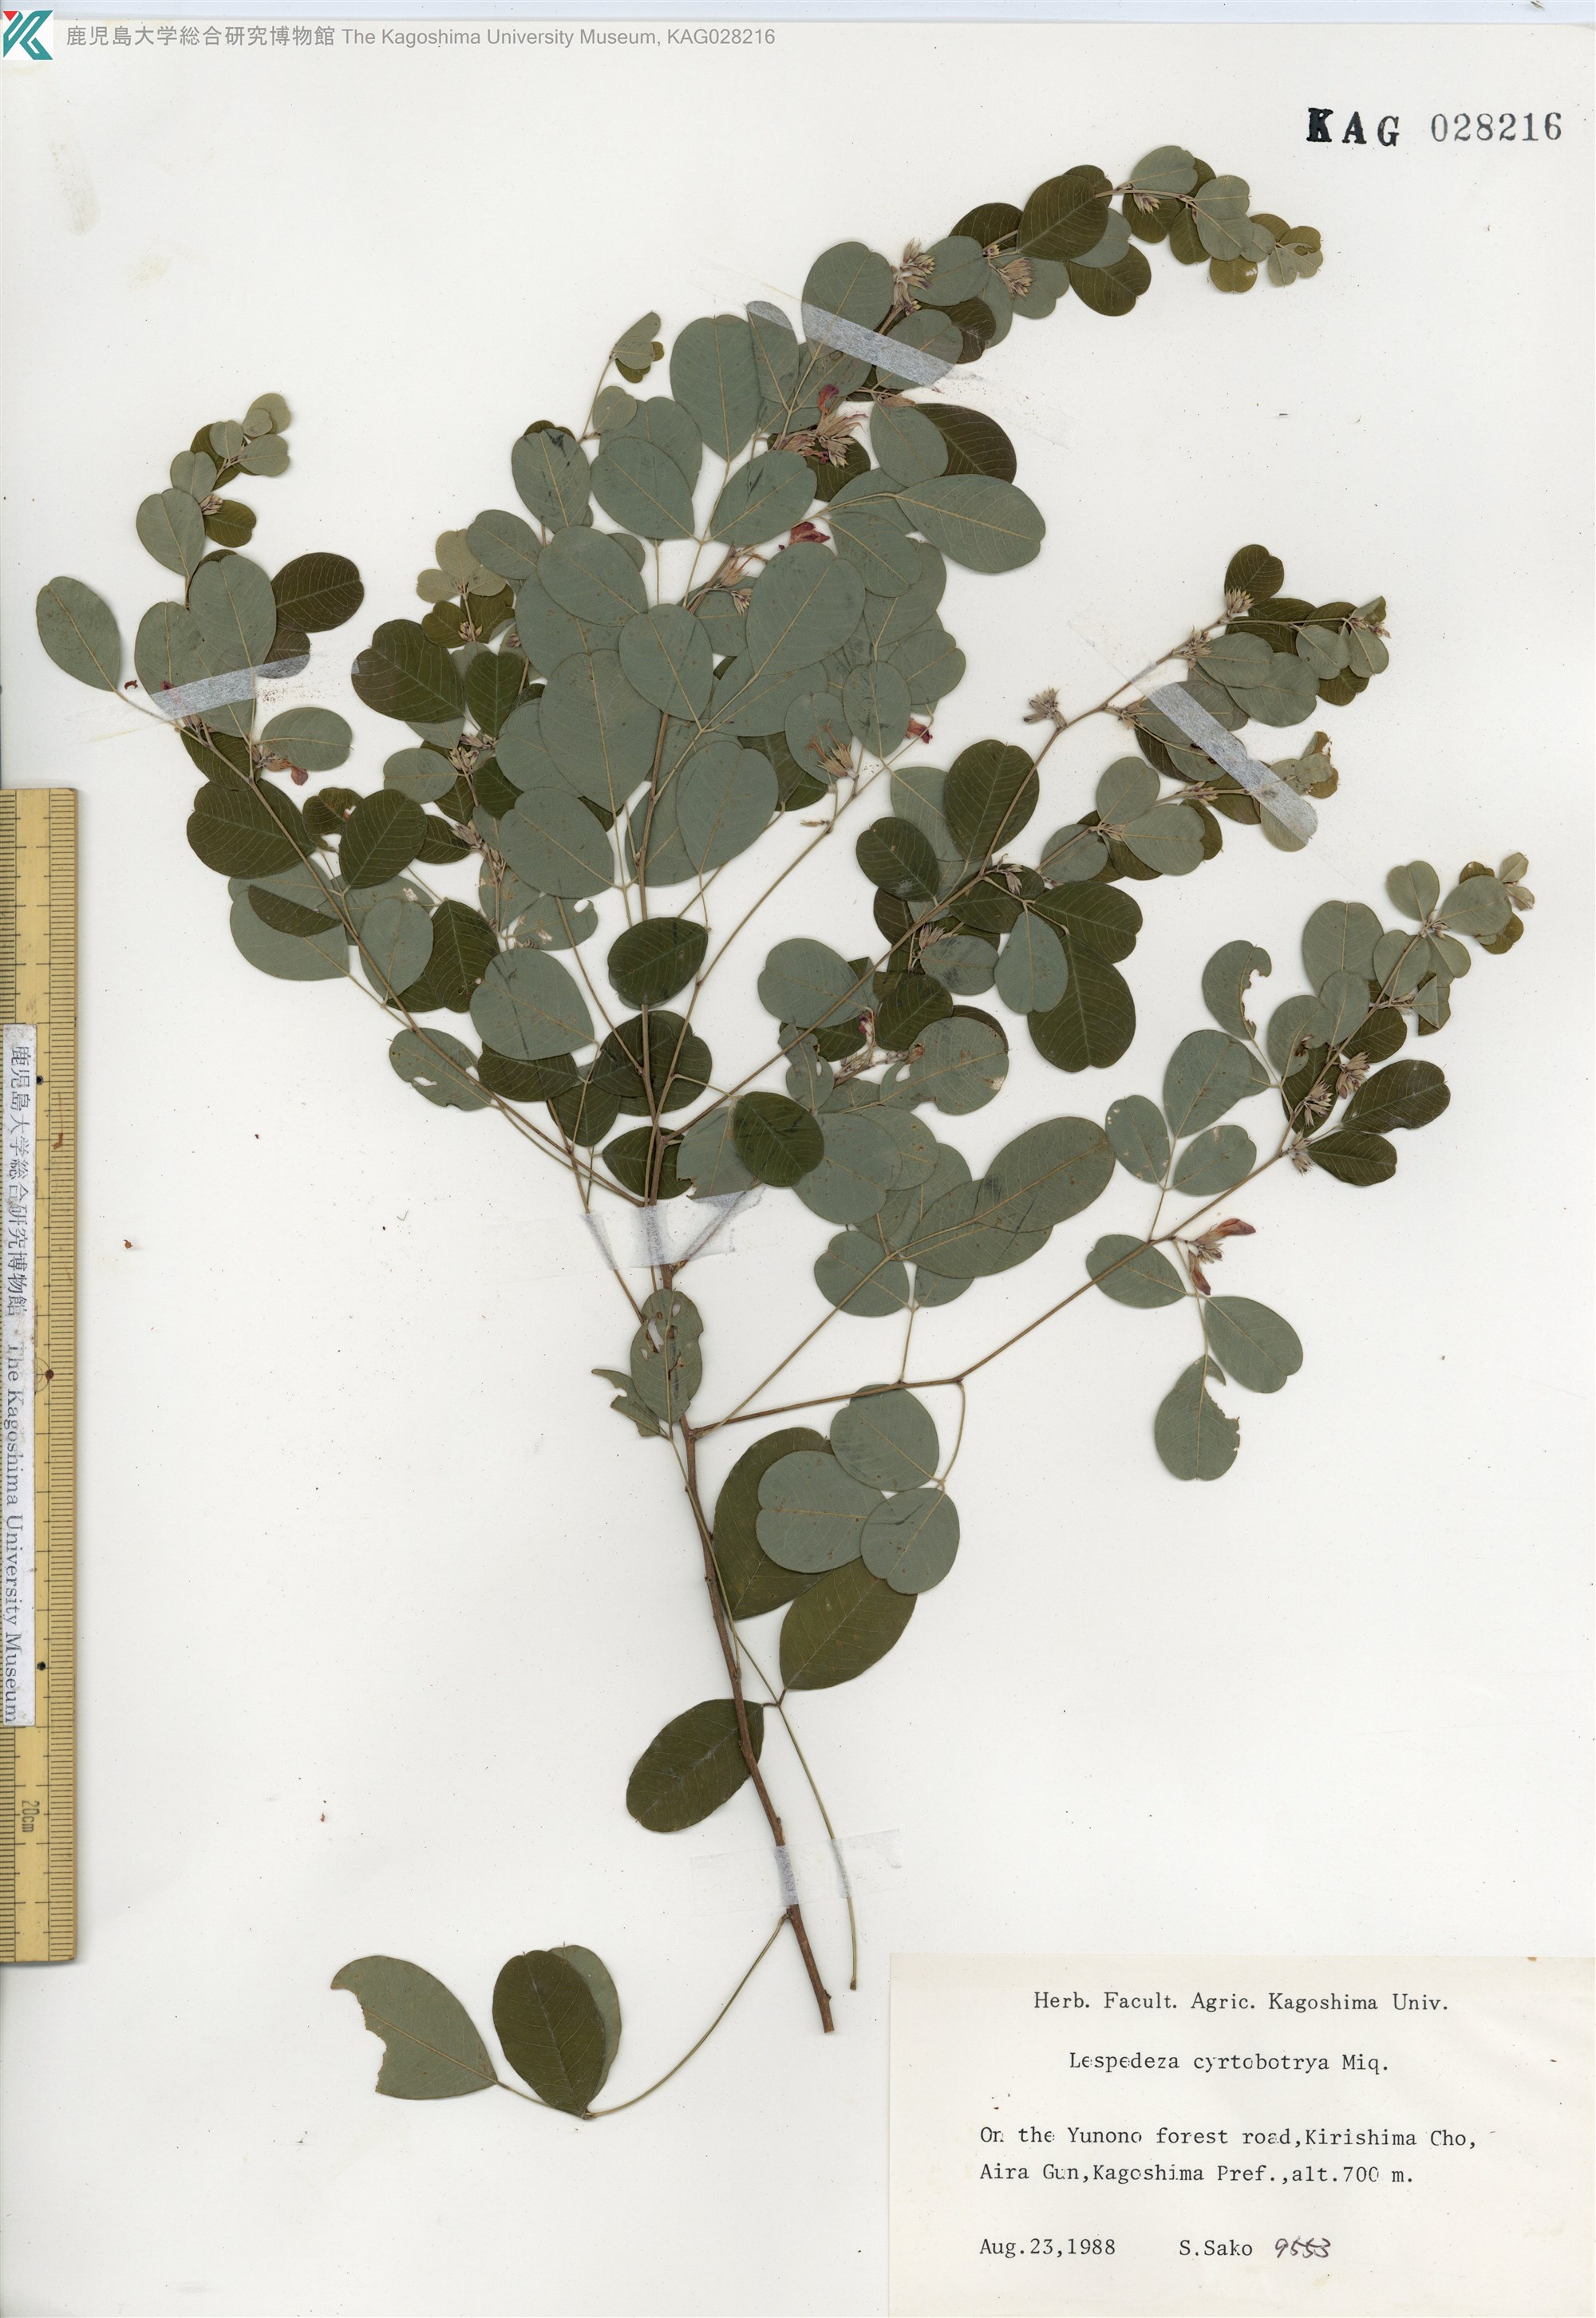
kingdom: Plantae
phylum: Tracheophyta
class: Magnoliopsida
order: Fabales
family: Fabaceae
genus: Lespedeza
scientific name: Lespedeza cyrtobotrya
